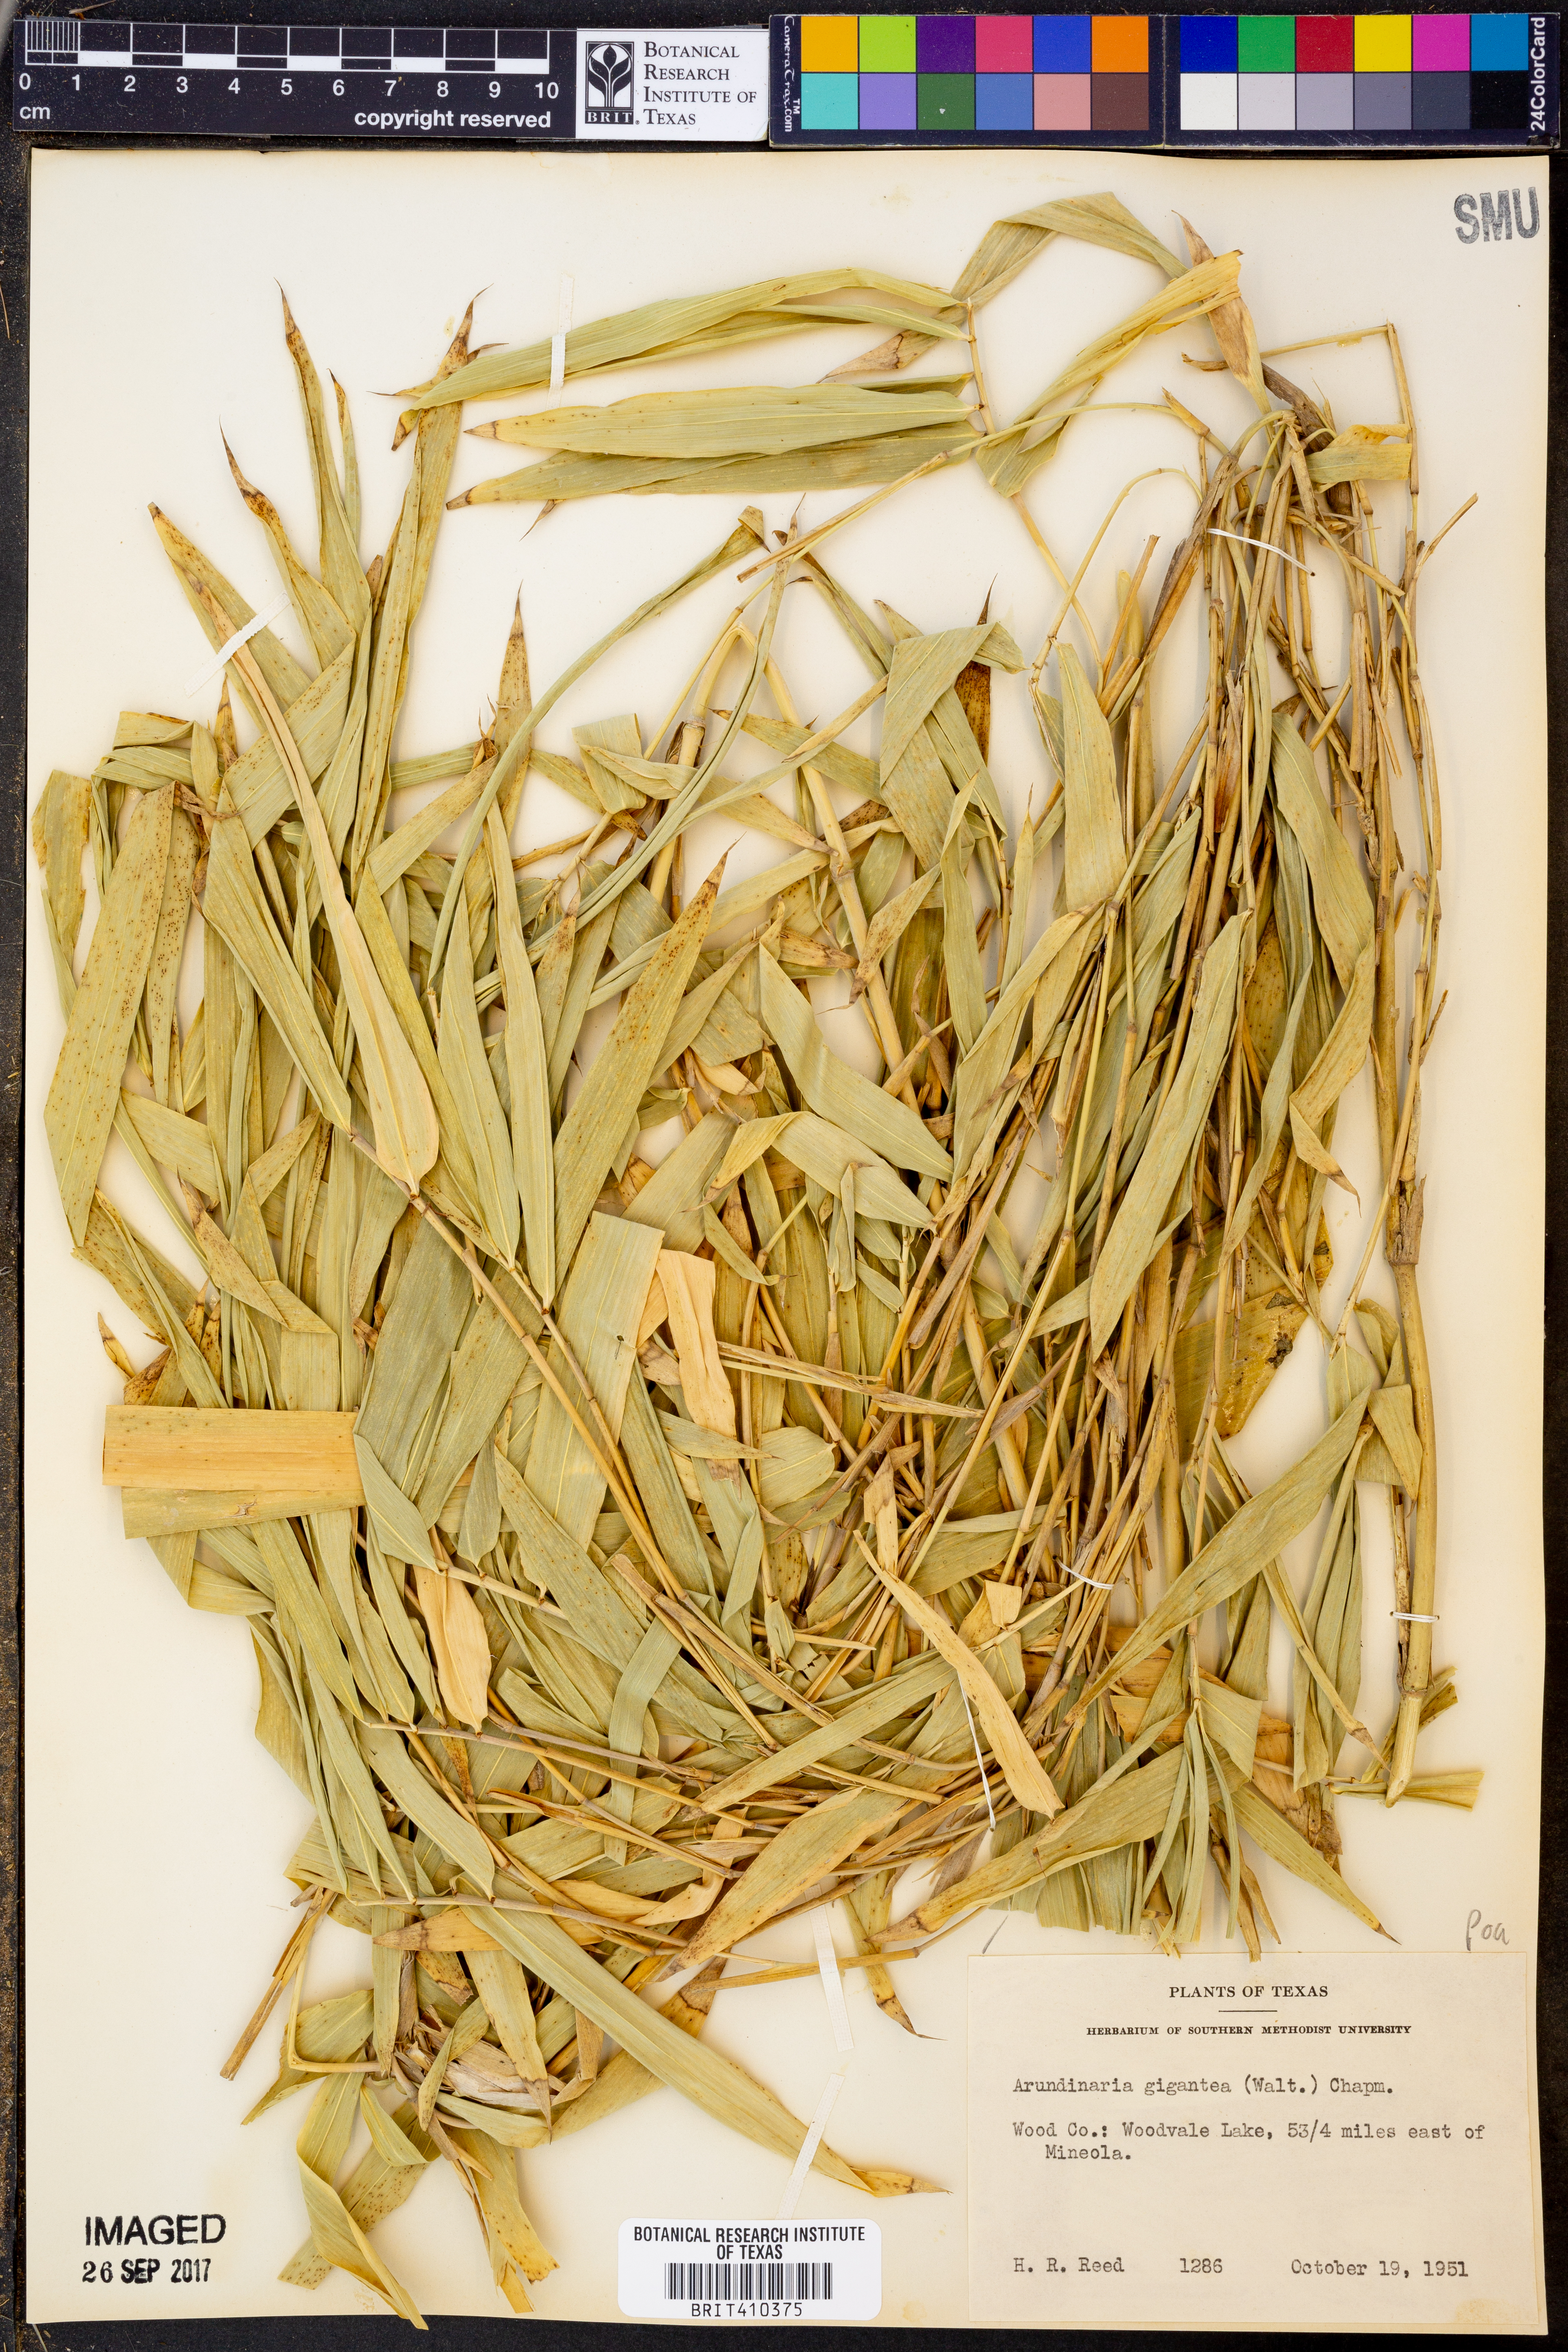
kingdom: Plantae
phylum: Tracheophyta
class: Liliopsida
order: Poales
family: Poaceae
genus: Arundinaria
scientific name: Arundinaria gigantea
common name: Giant cane
